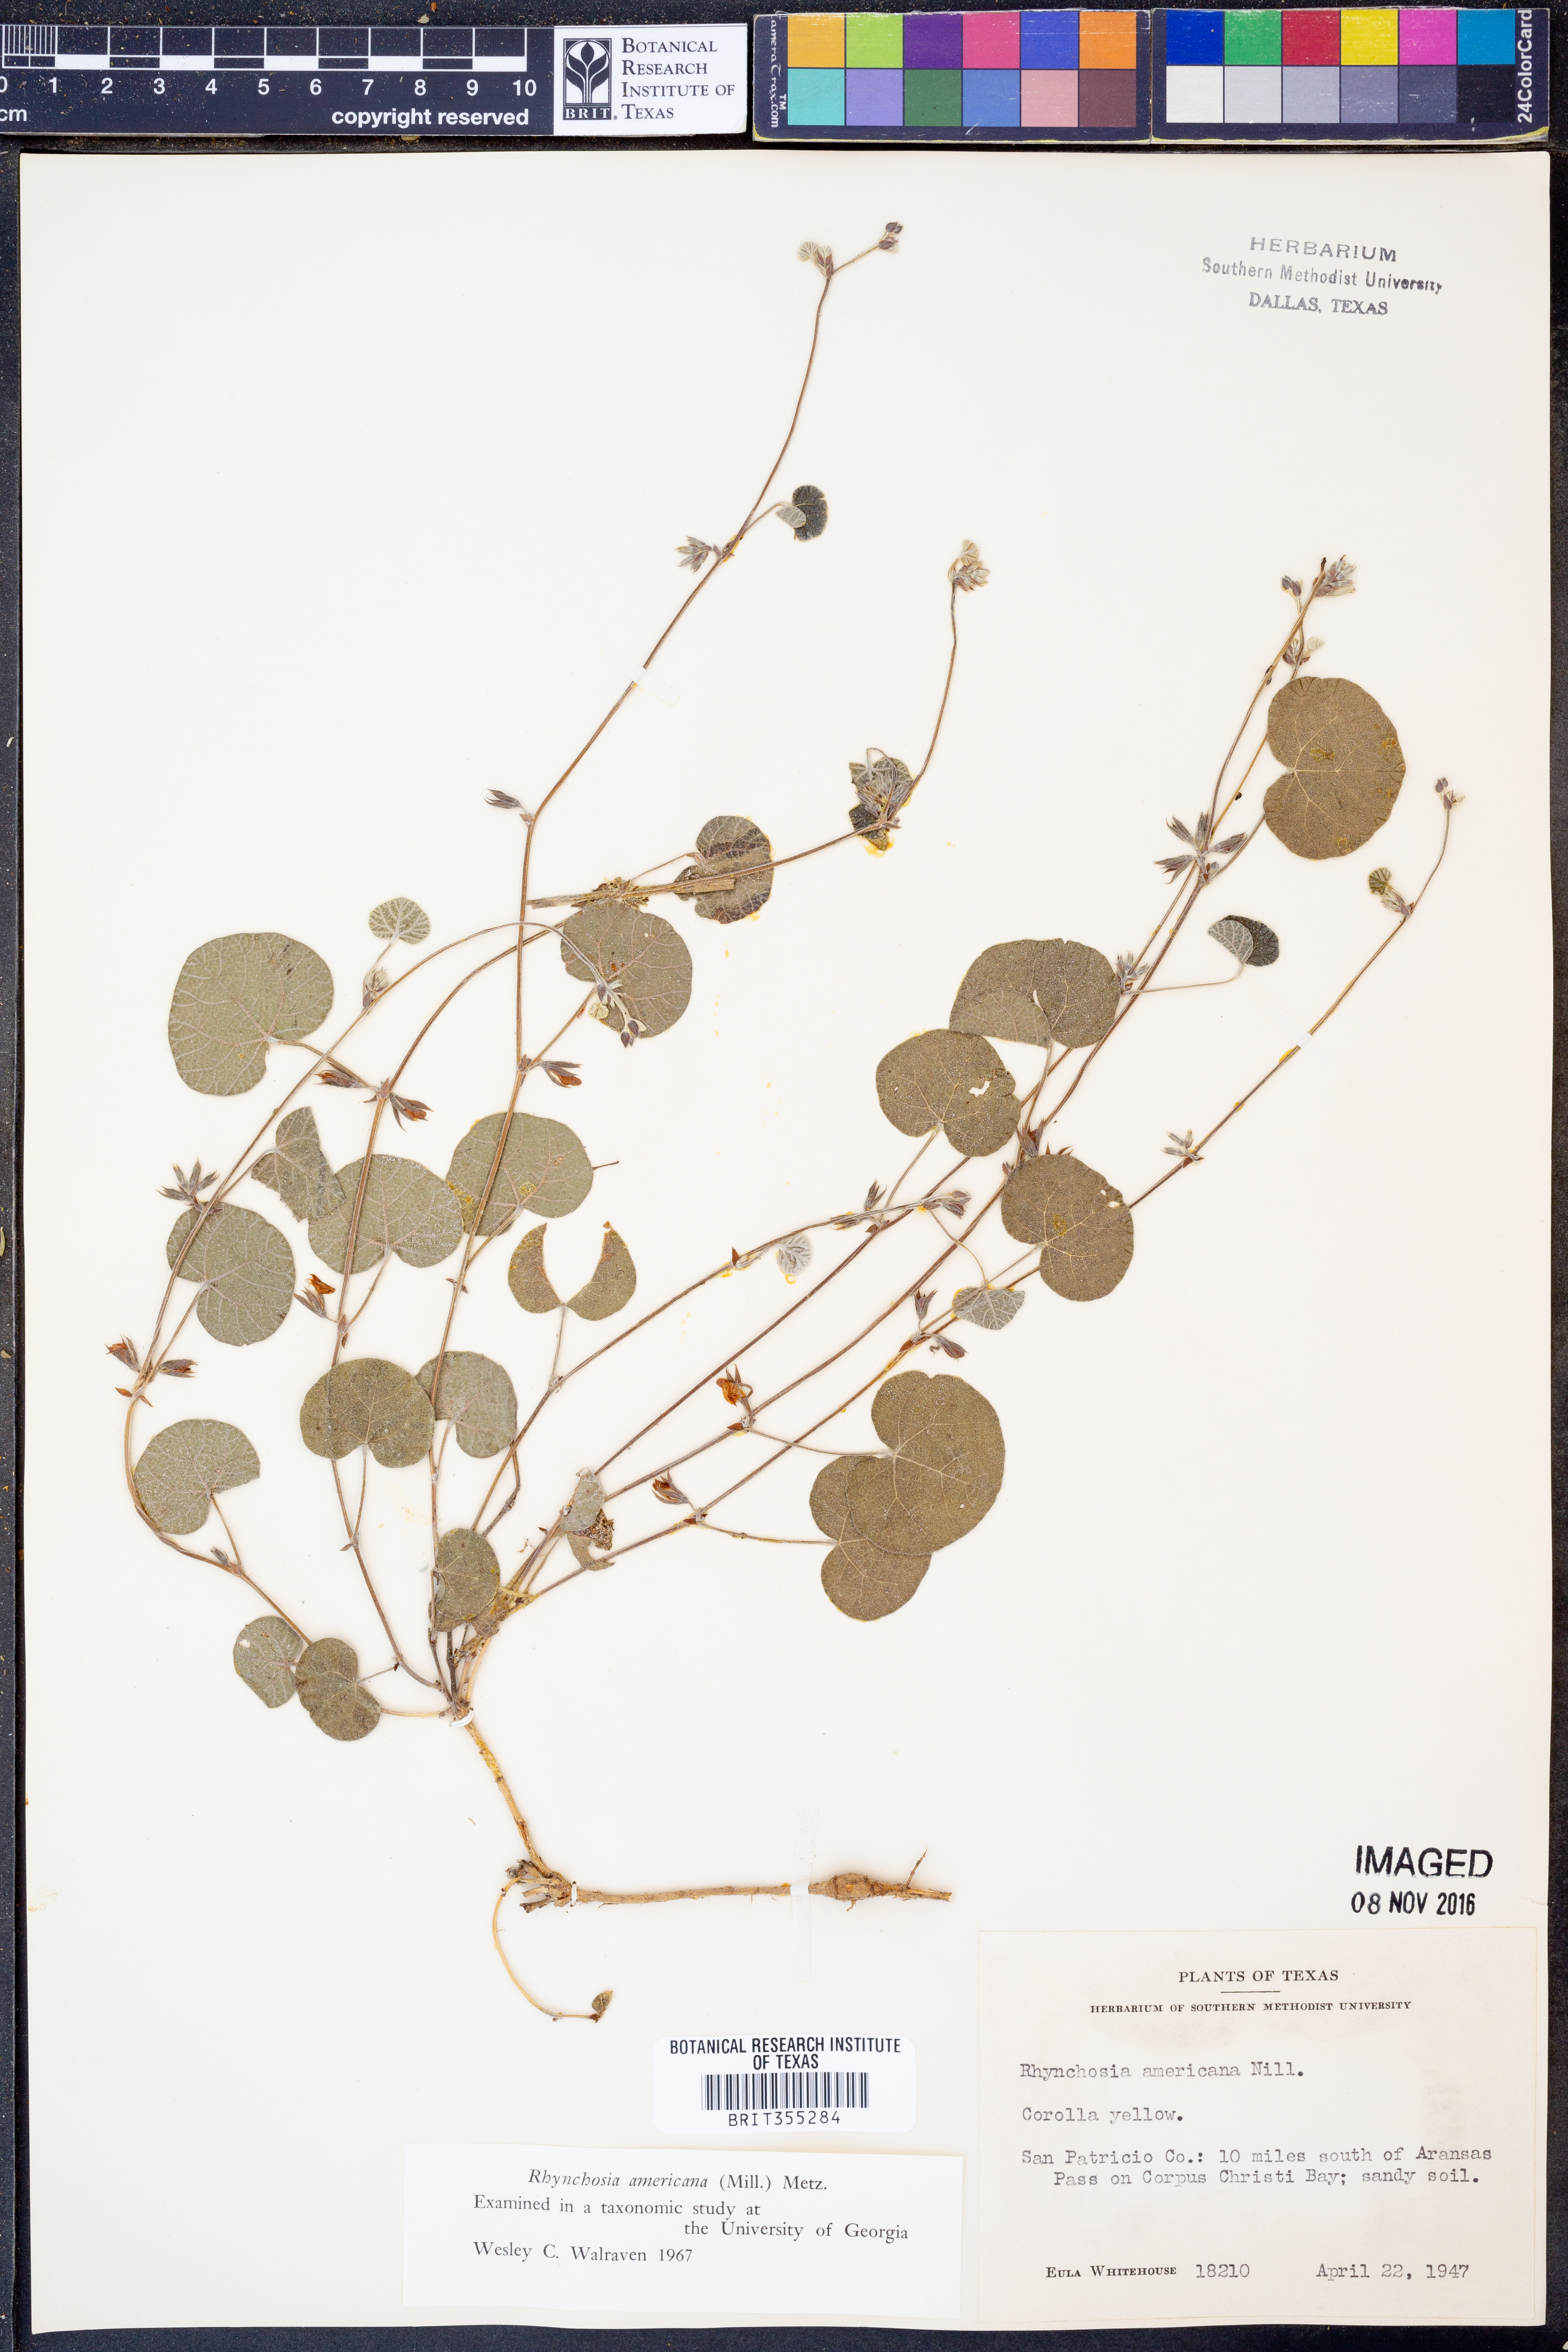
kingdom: Plantae
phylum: Tracheophyta
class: Magnoliopsida
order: Fabales
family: Fabaceae
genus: Rhynchosia
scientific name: Rhynchosia americana
